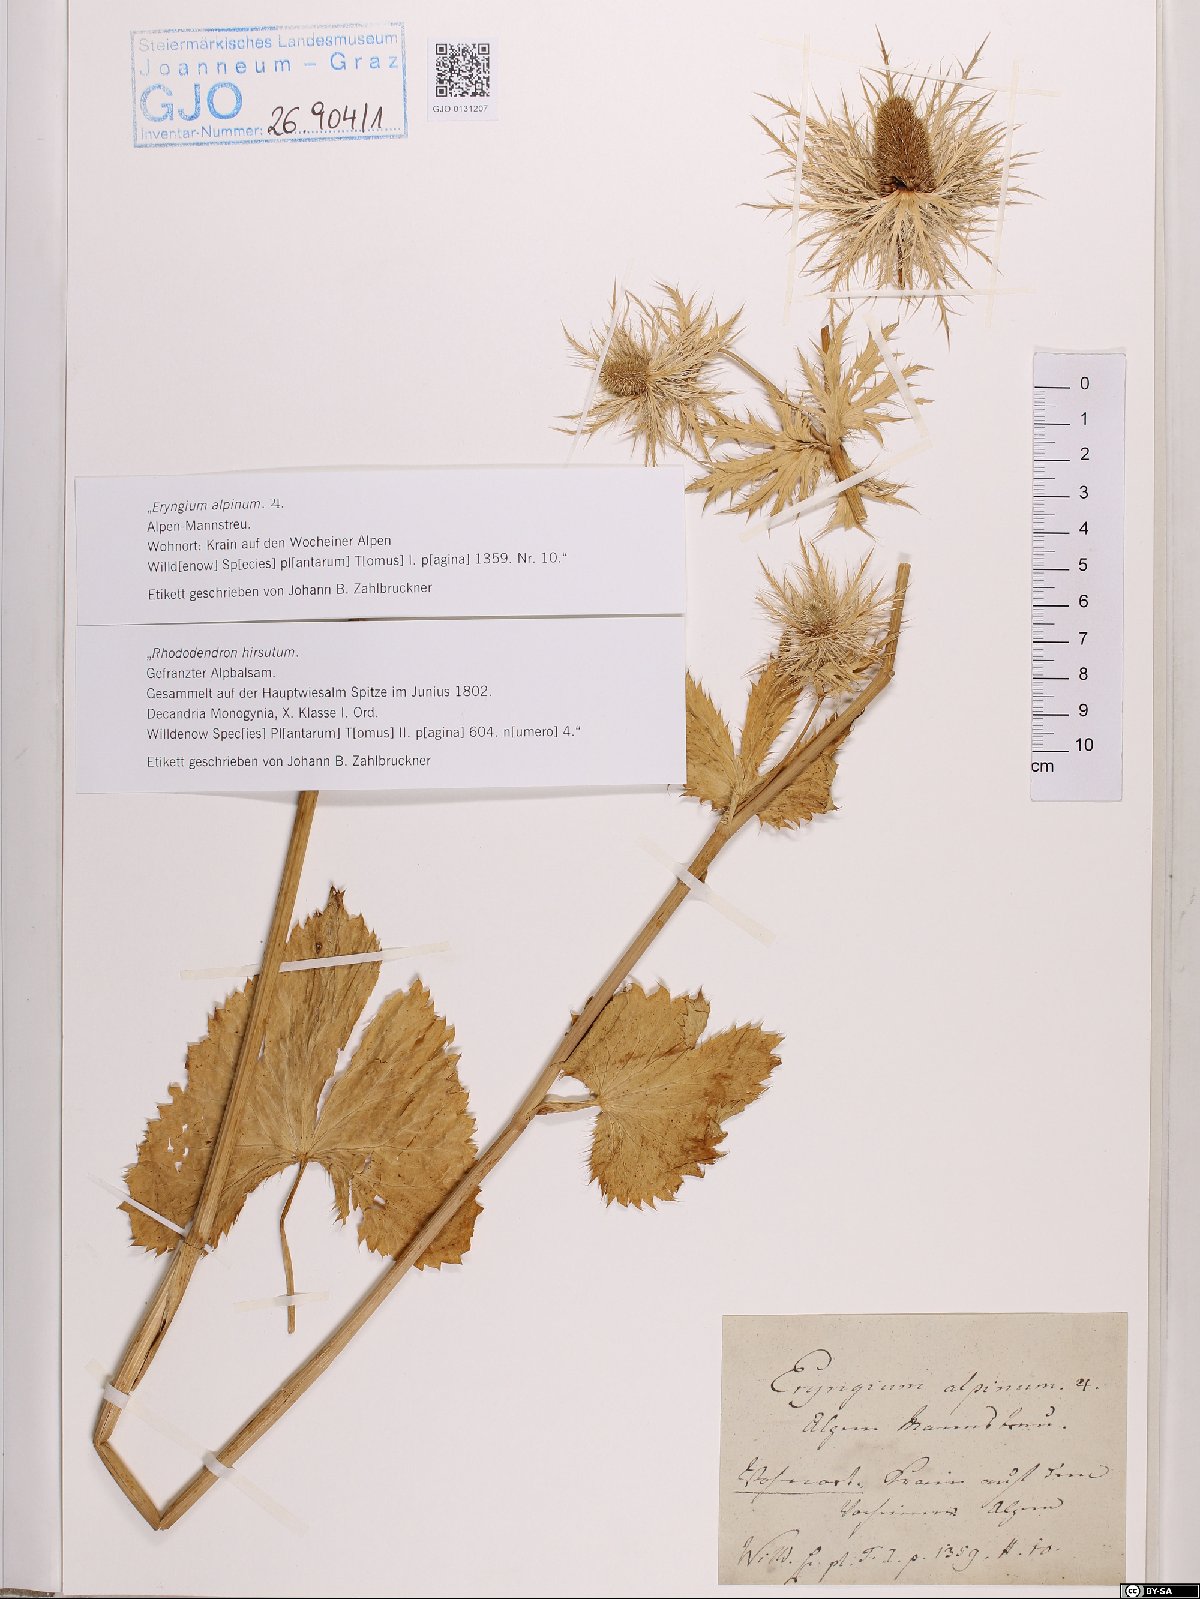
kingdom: Plantae
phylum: Tracheophyta
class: Magnoliopsida
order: Apiales
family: Apiaceae
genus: Eryngium
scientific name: Eryngium alpinum
